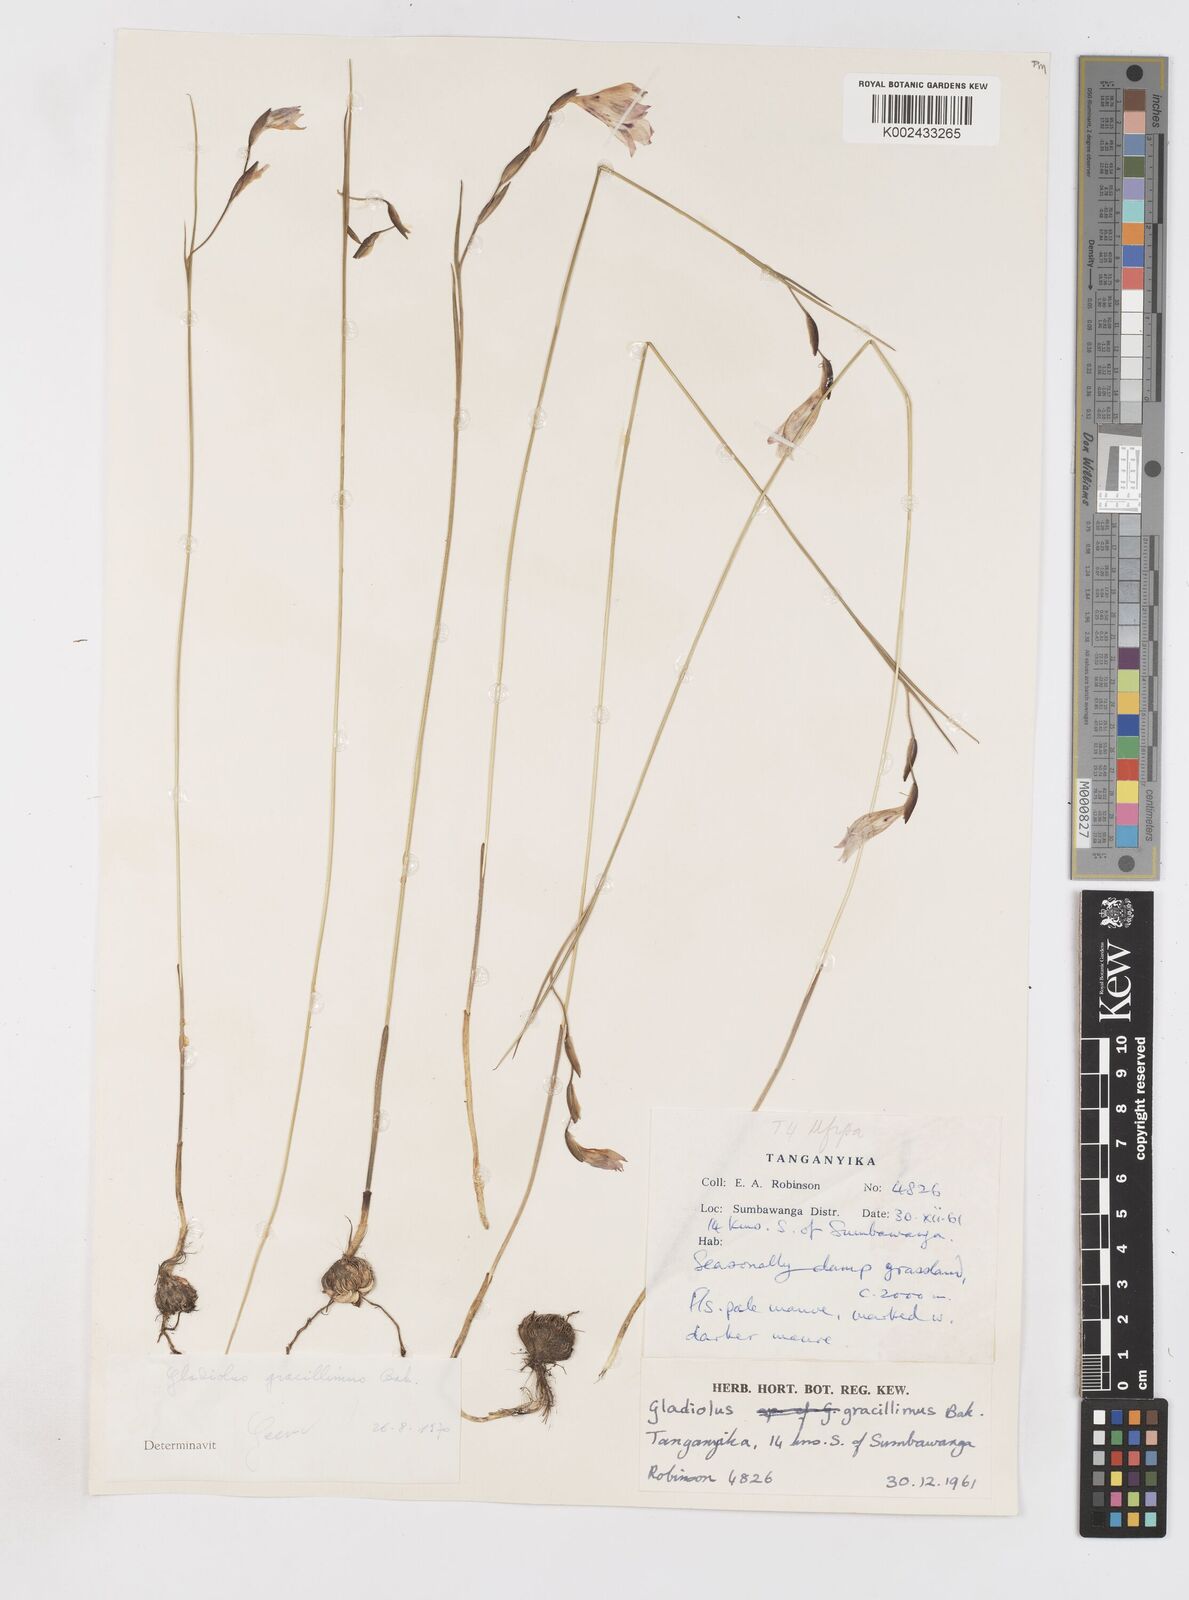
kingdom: Plantae
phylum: Tracheophyta
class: Liliopsida
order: Asparagales
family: Iridaceae
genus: Gladiolus
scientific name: Gladiolus gracillimus
